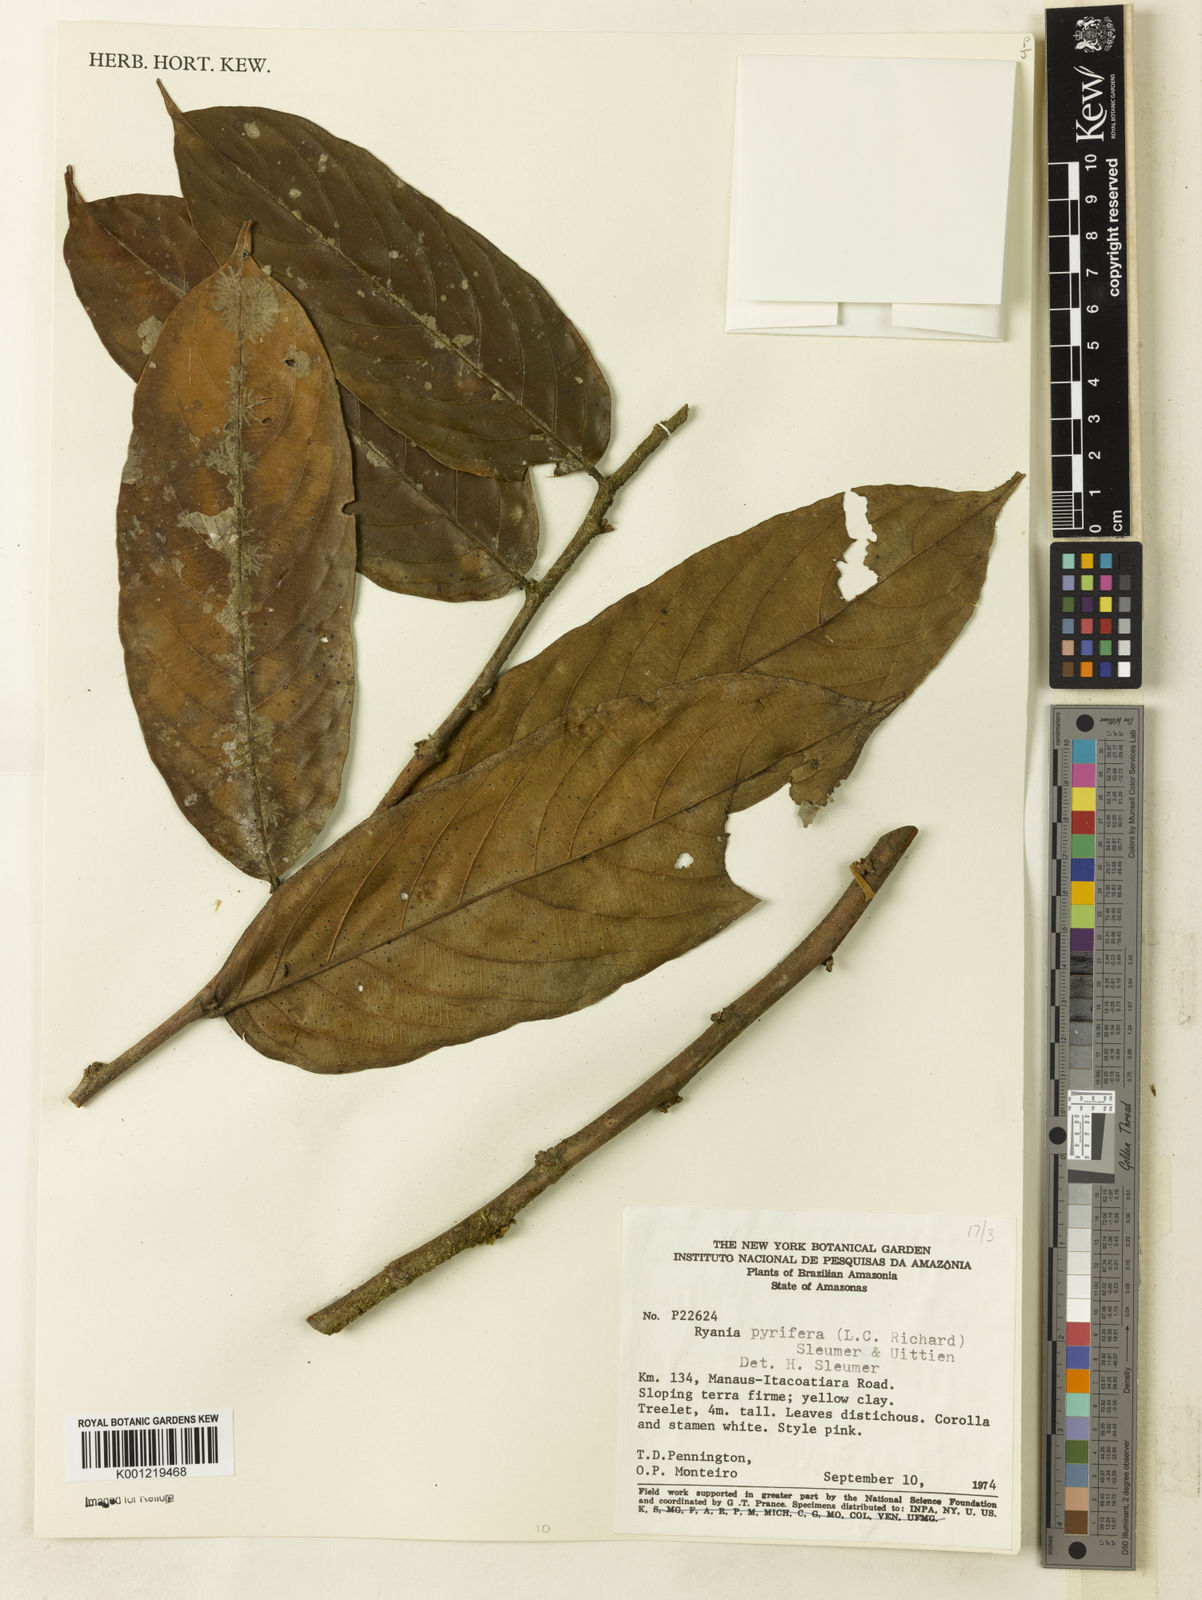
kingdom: Plantae
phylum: Tracheophyta
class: Magnoliopsida
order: Malpighiales
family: Salicaceae
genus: Ryania
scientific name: Ryania pyrifera
